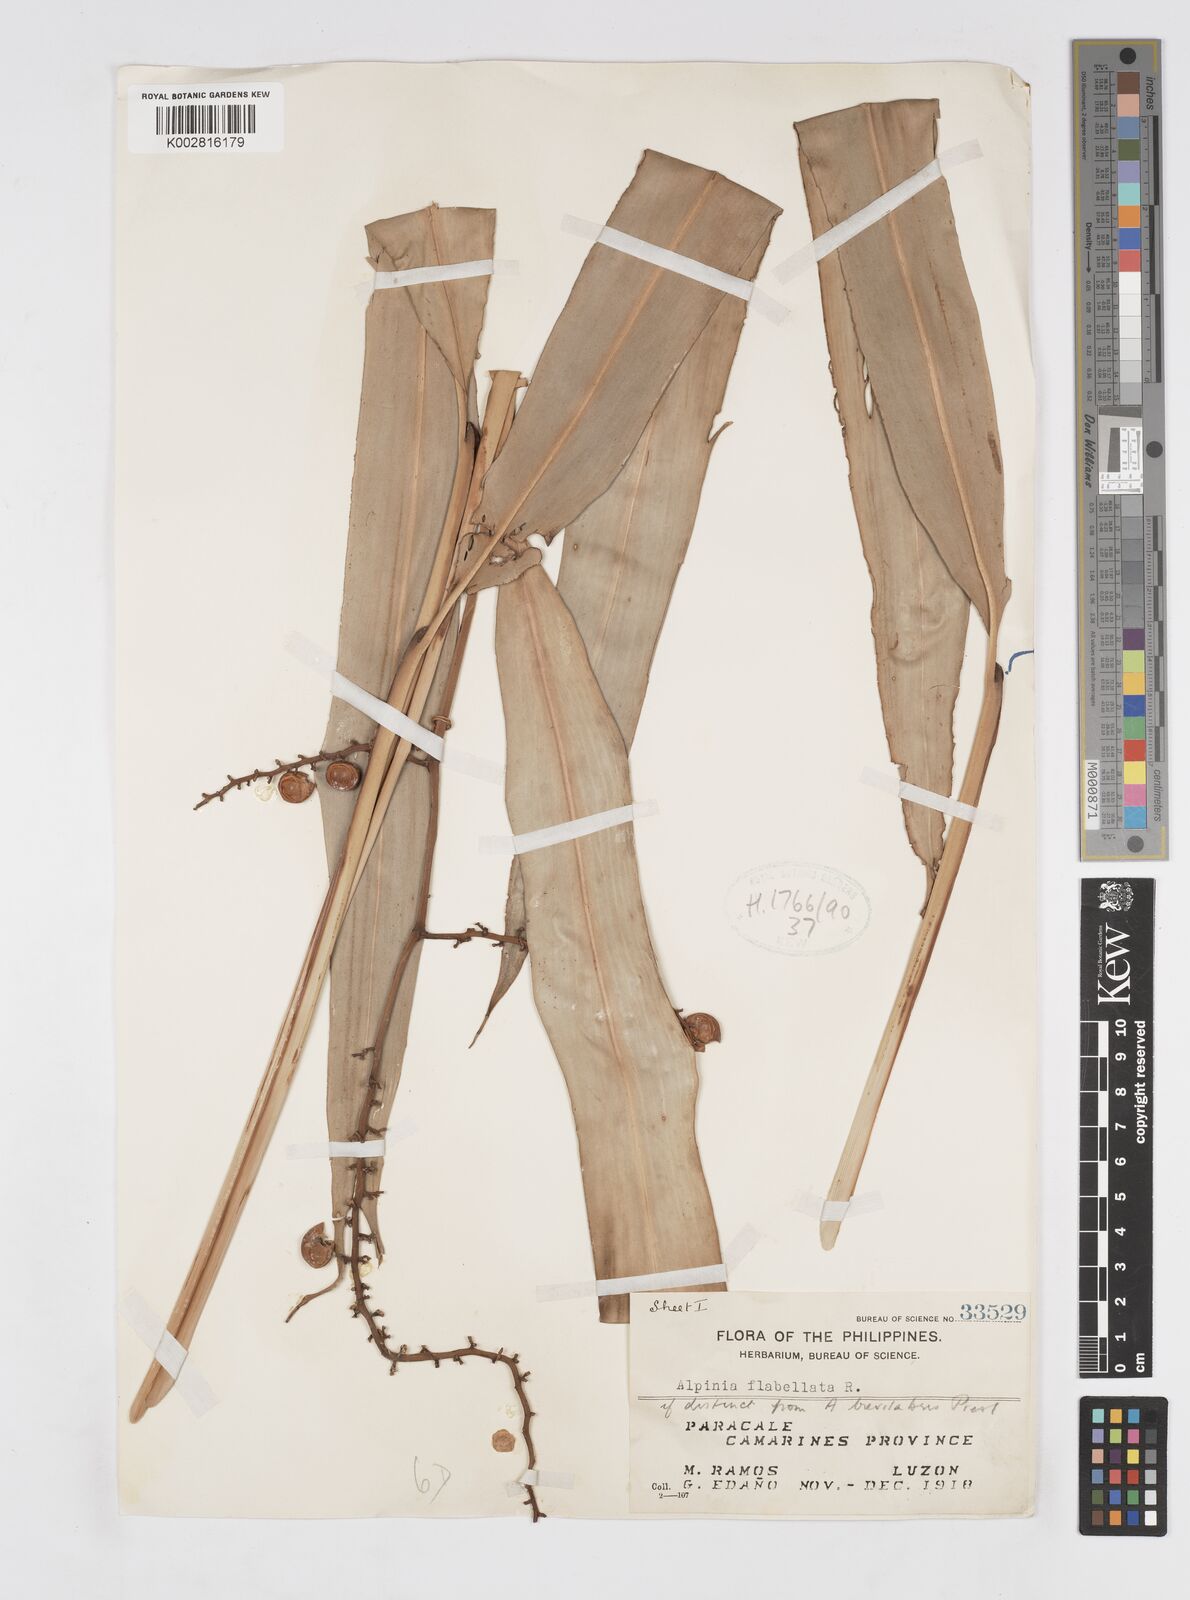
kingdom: Plantae
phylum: Tracheophyta
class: Liliopsida
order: Zingiberales
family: Zingiberaceae
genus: Alpinia
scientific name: Alpinia flabellata
